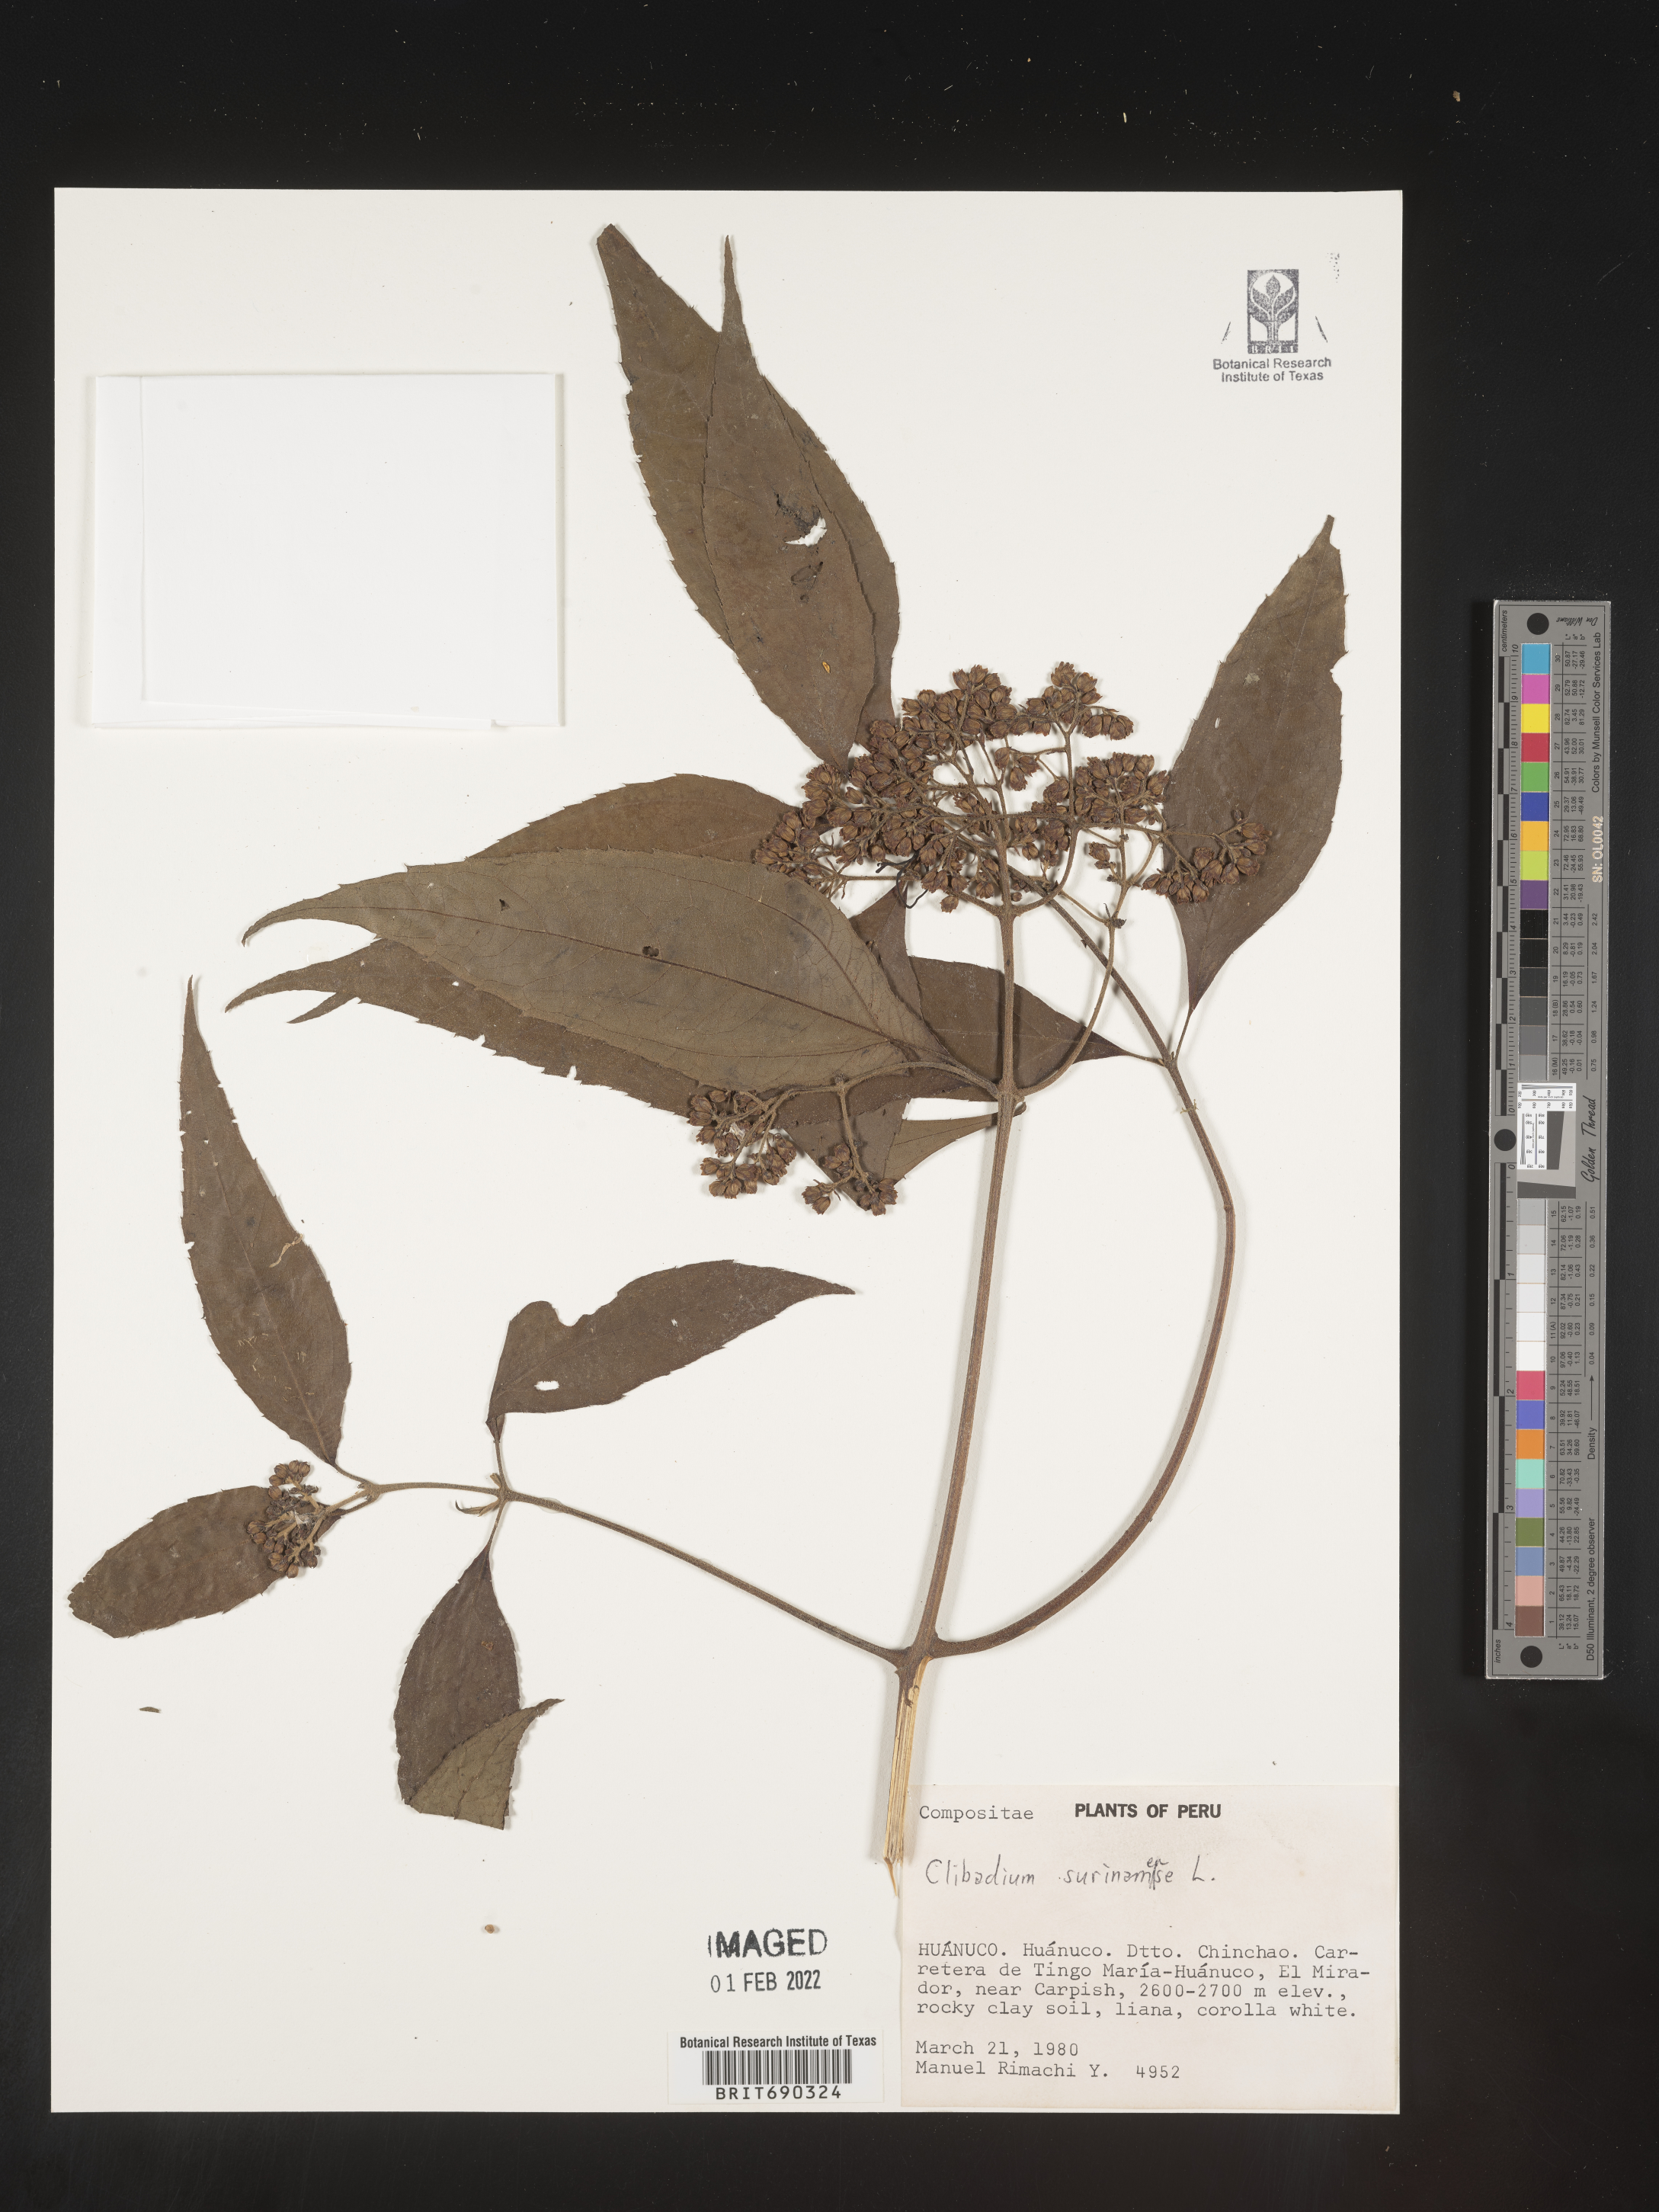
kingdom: Plantae
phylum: Tracheophyta
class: Magnoliopsida
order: Asterales
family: Asteraceae
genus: Clibadium
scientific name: Clibadium
